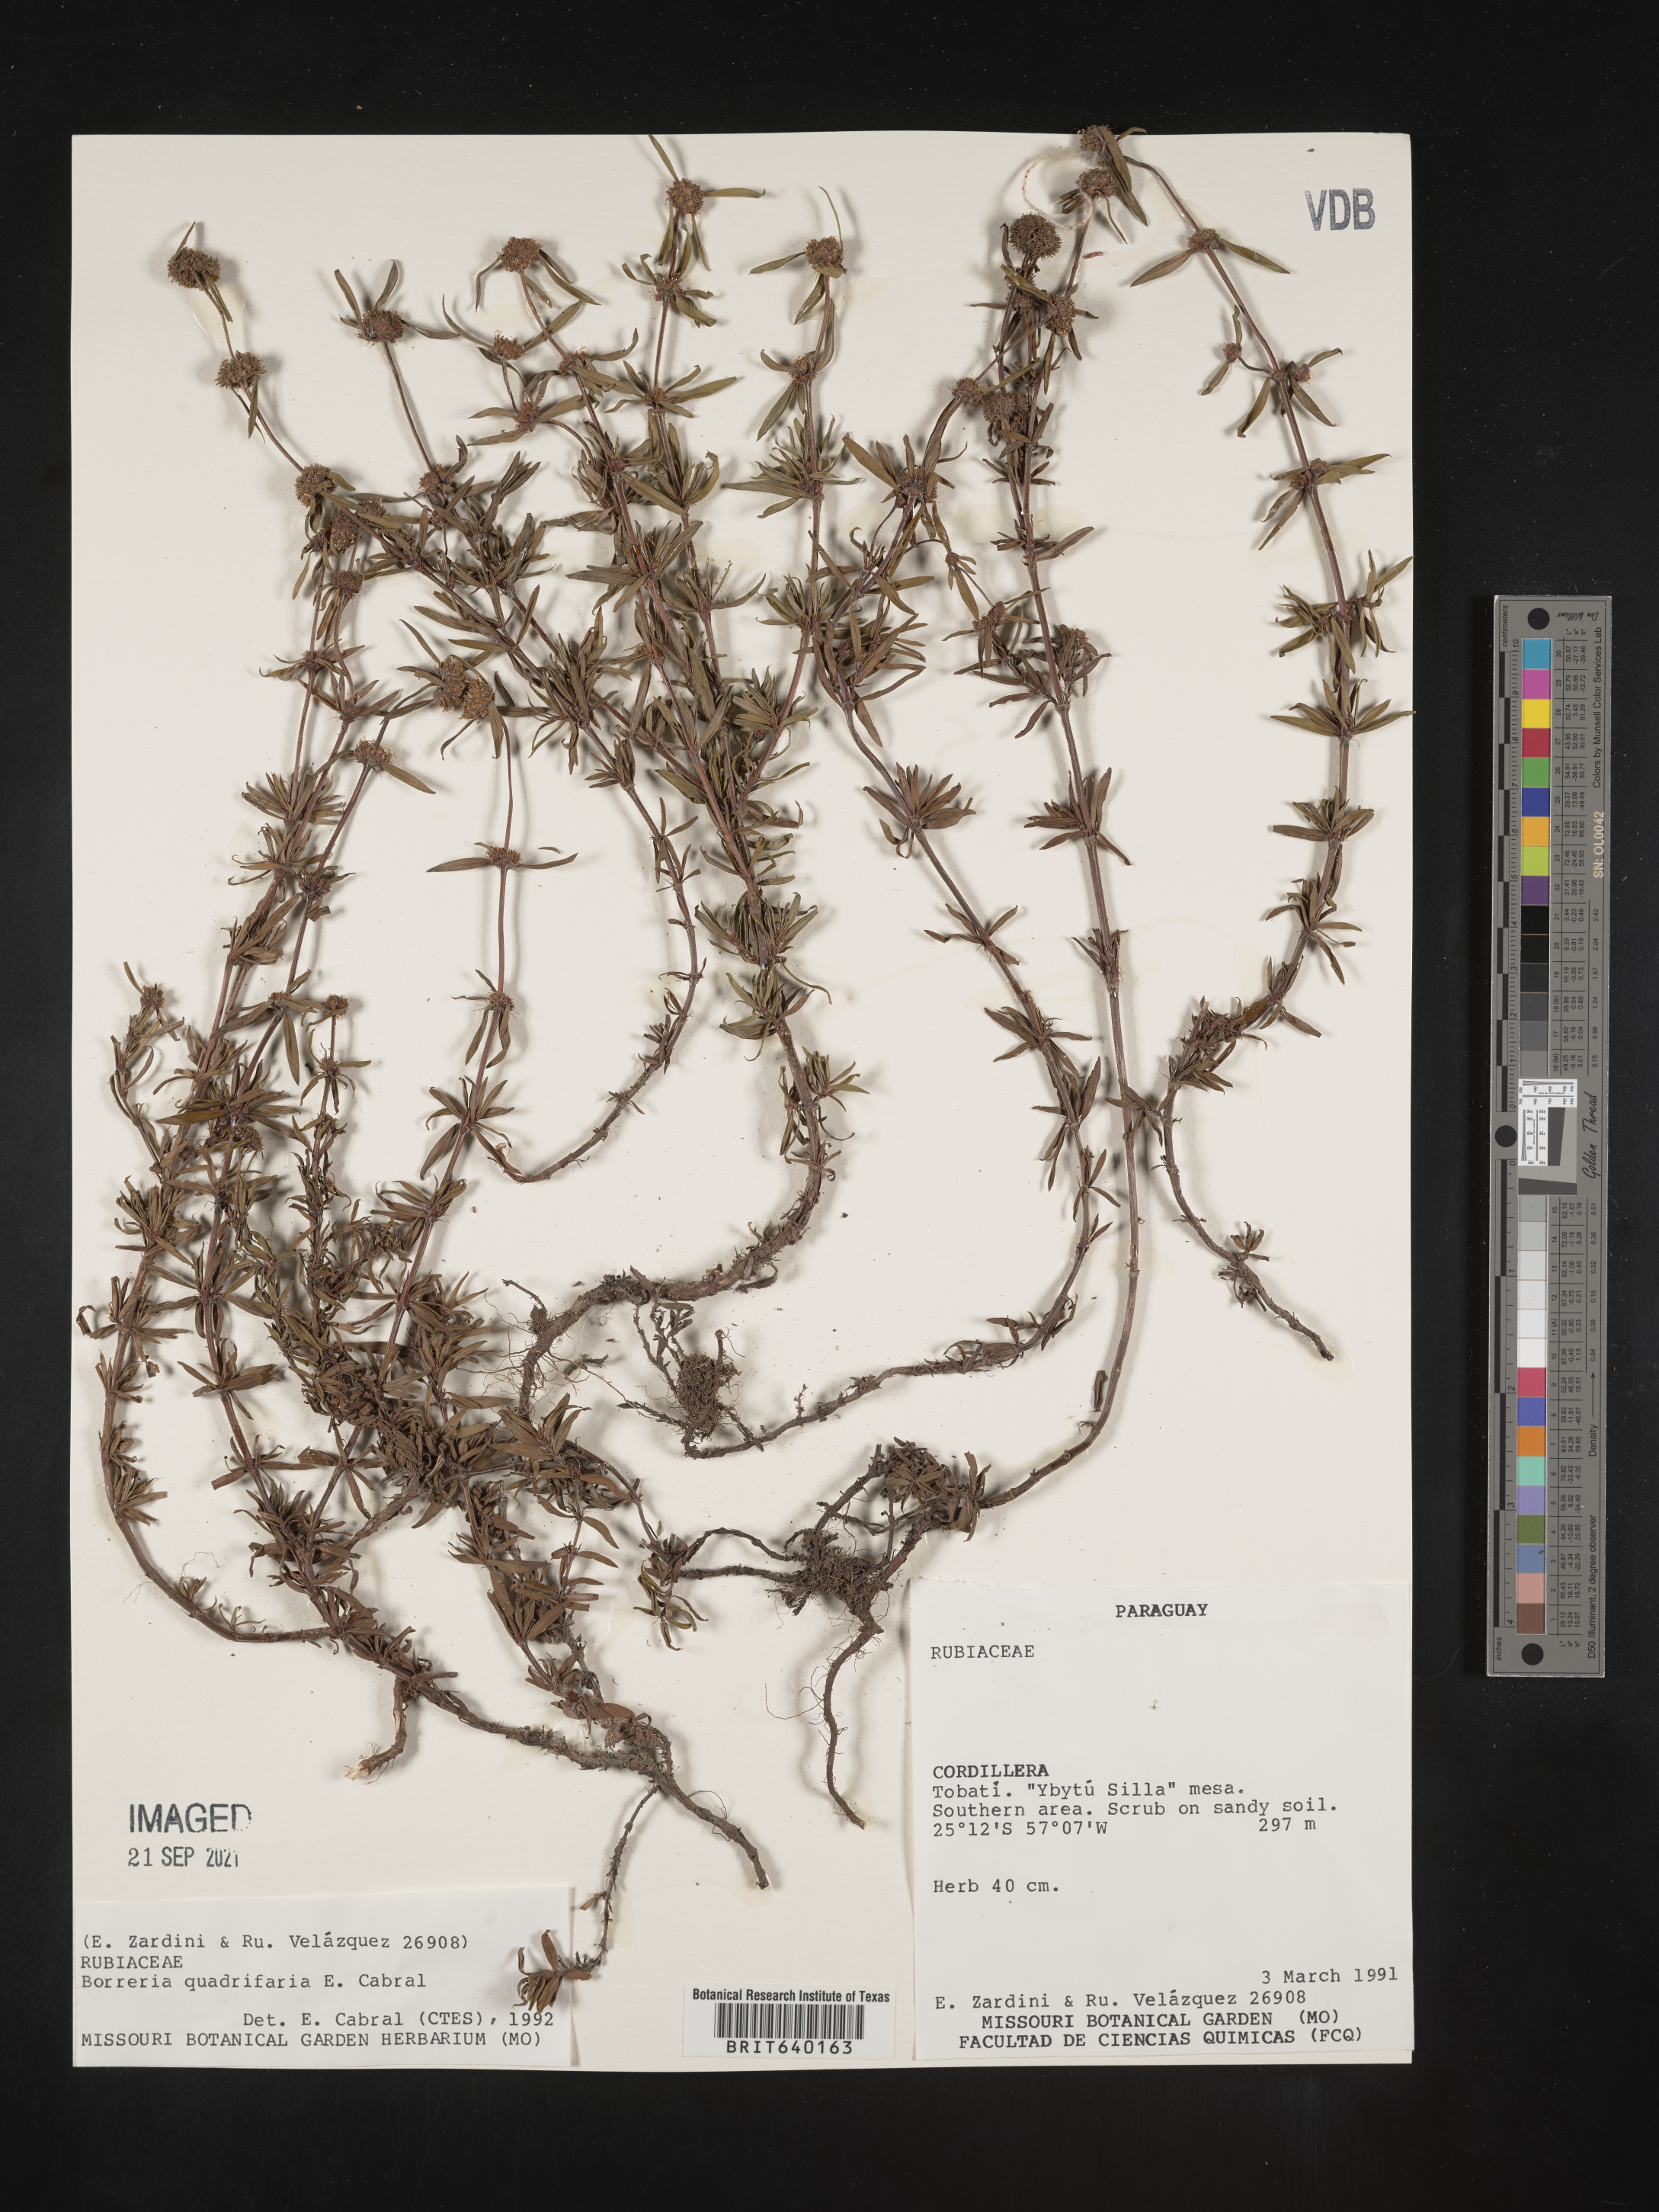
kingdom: Plantae
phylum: Tracheophyta
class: Magnoliopsida
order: Gentianales
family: Rubiaceae
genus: Spermacoce
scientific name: Spermacoce
